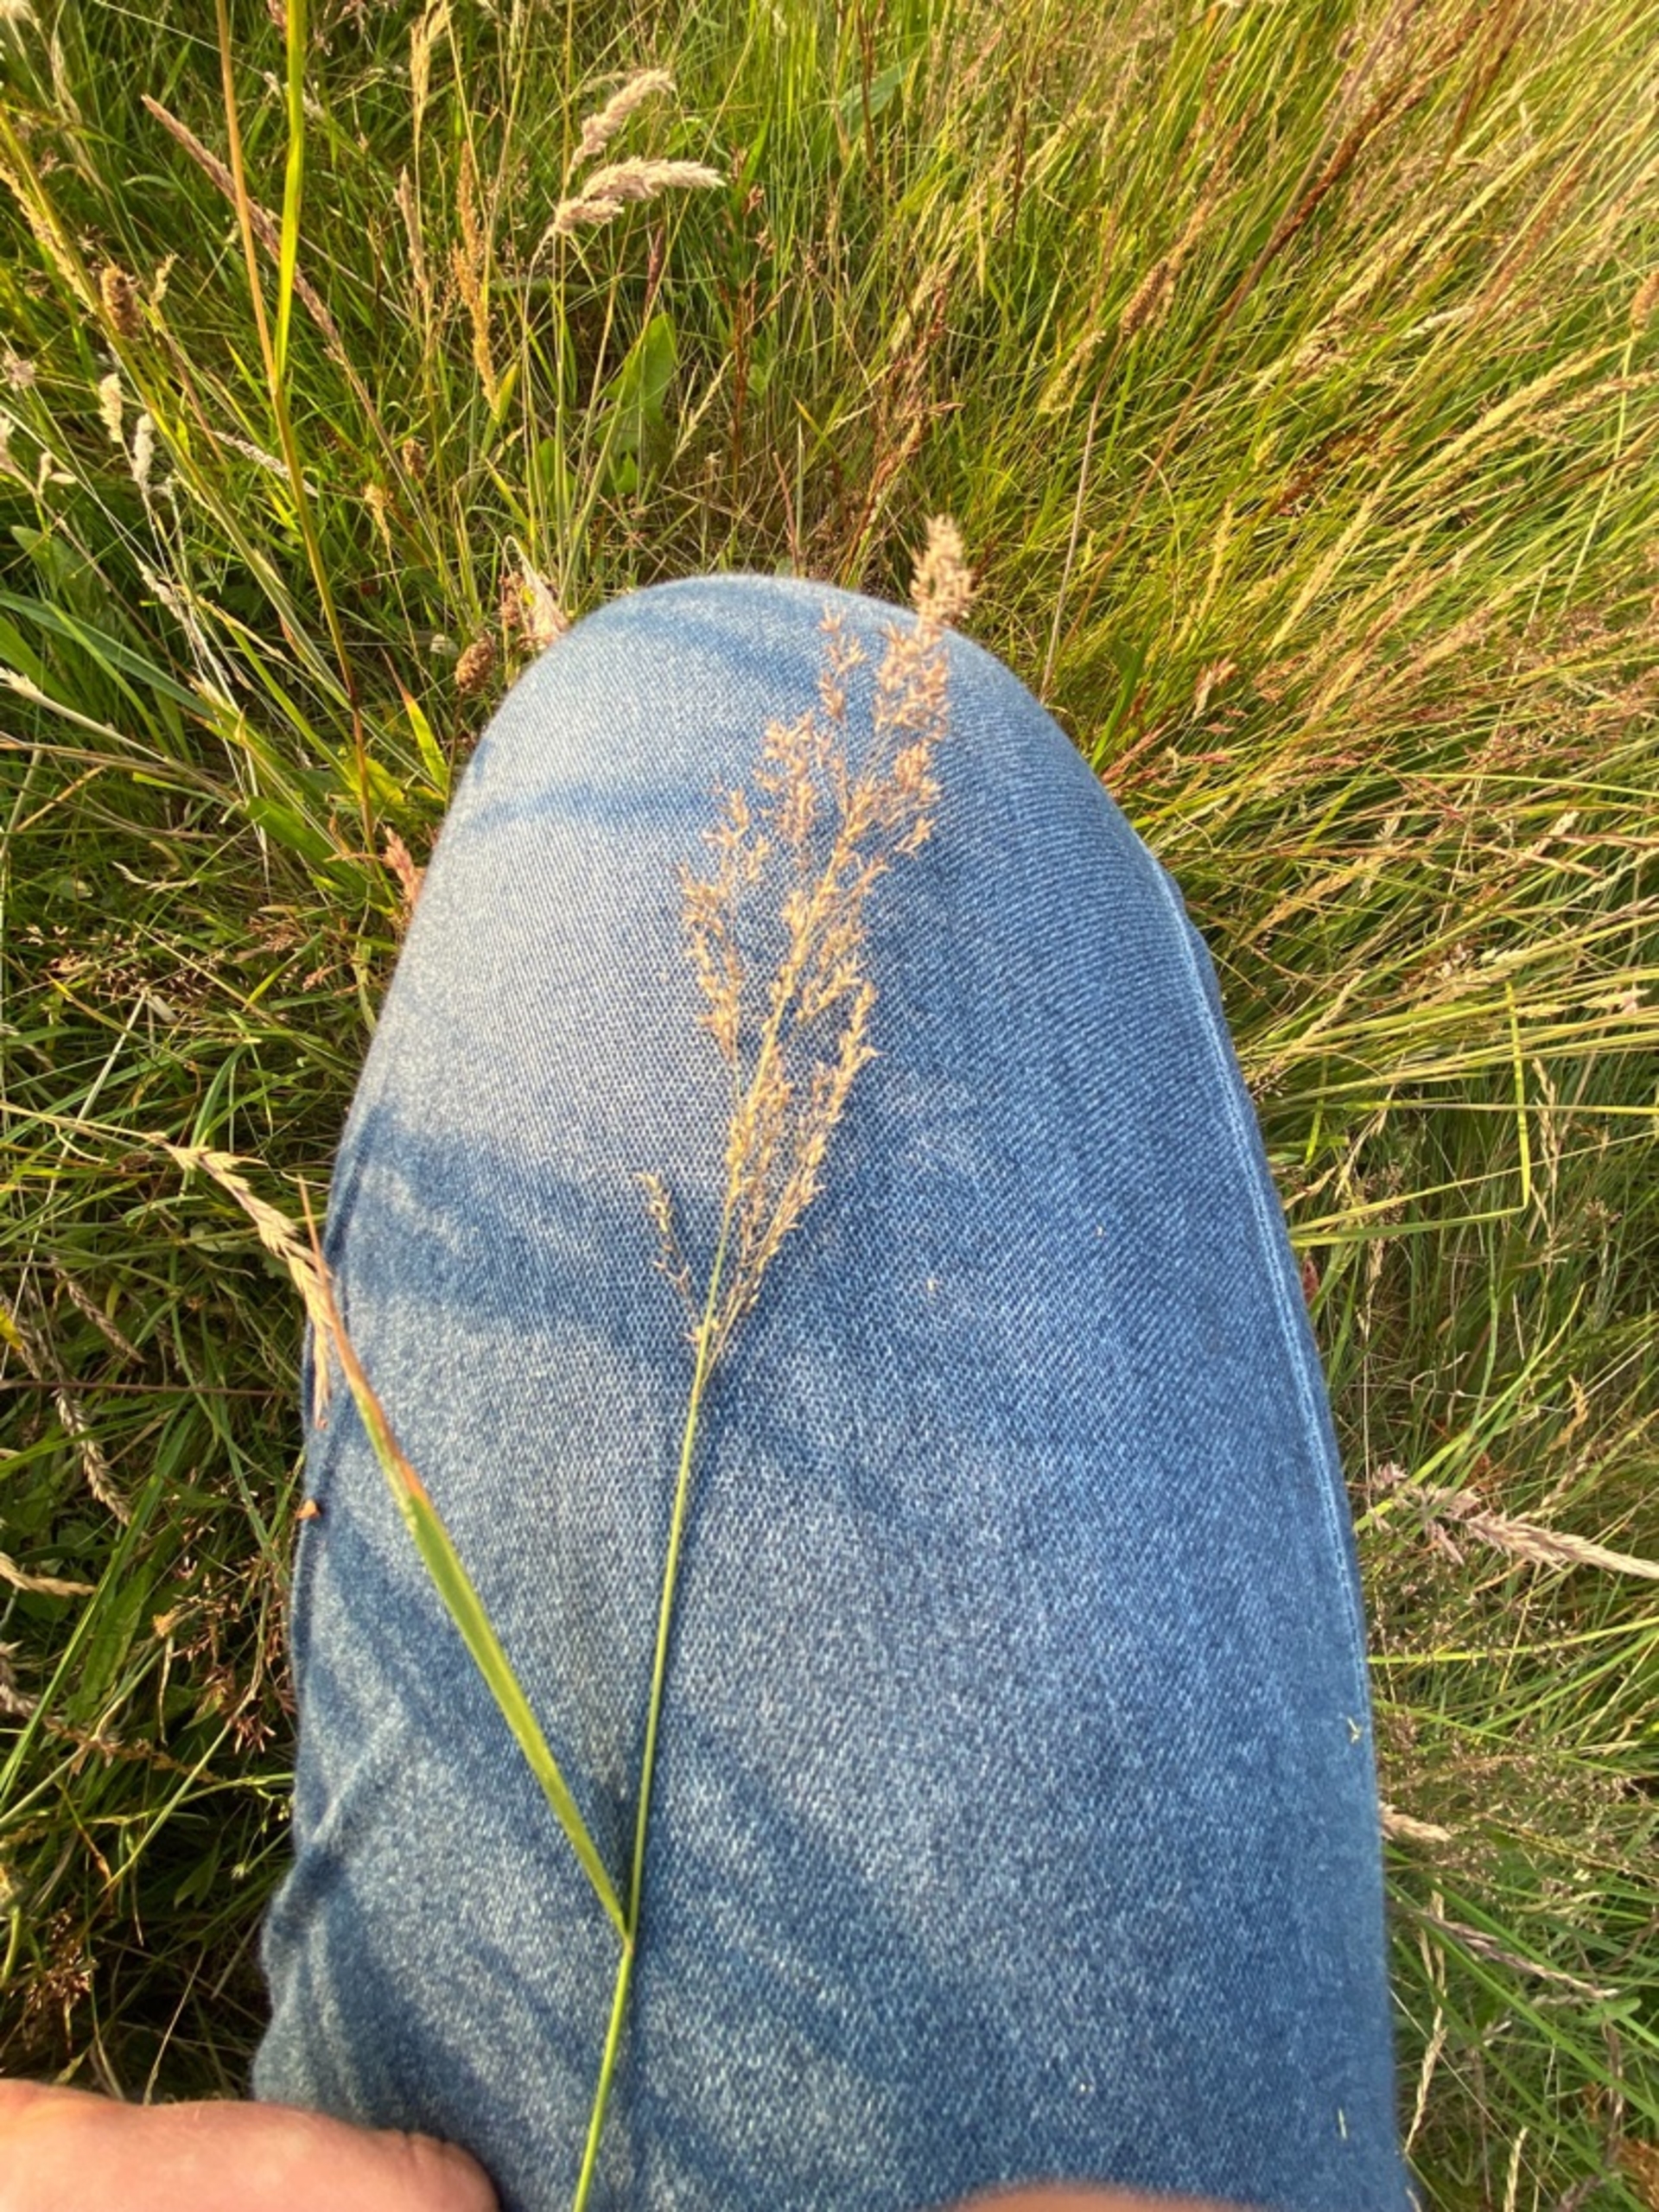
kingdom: Plantae
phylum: Tracheophyta
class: Liliopsida
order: Poales
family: Poaceae
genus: Agrostis
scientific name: Agrostis
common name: Hveneslægten
